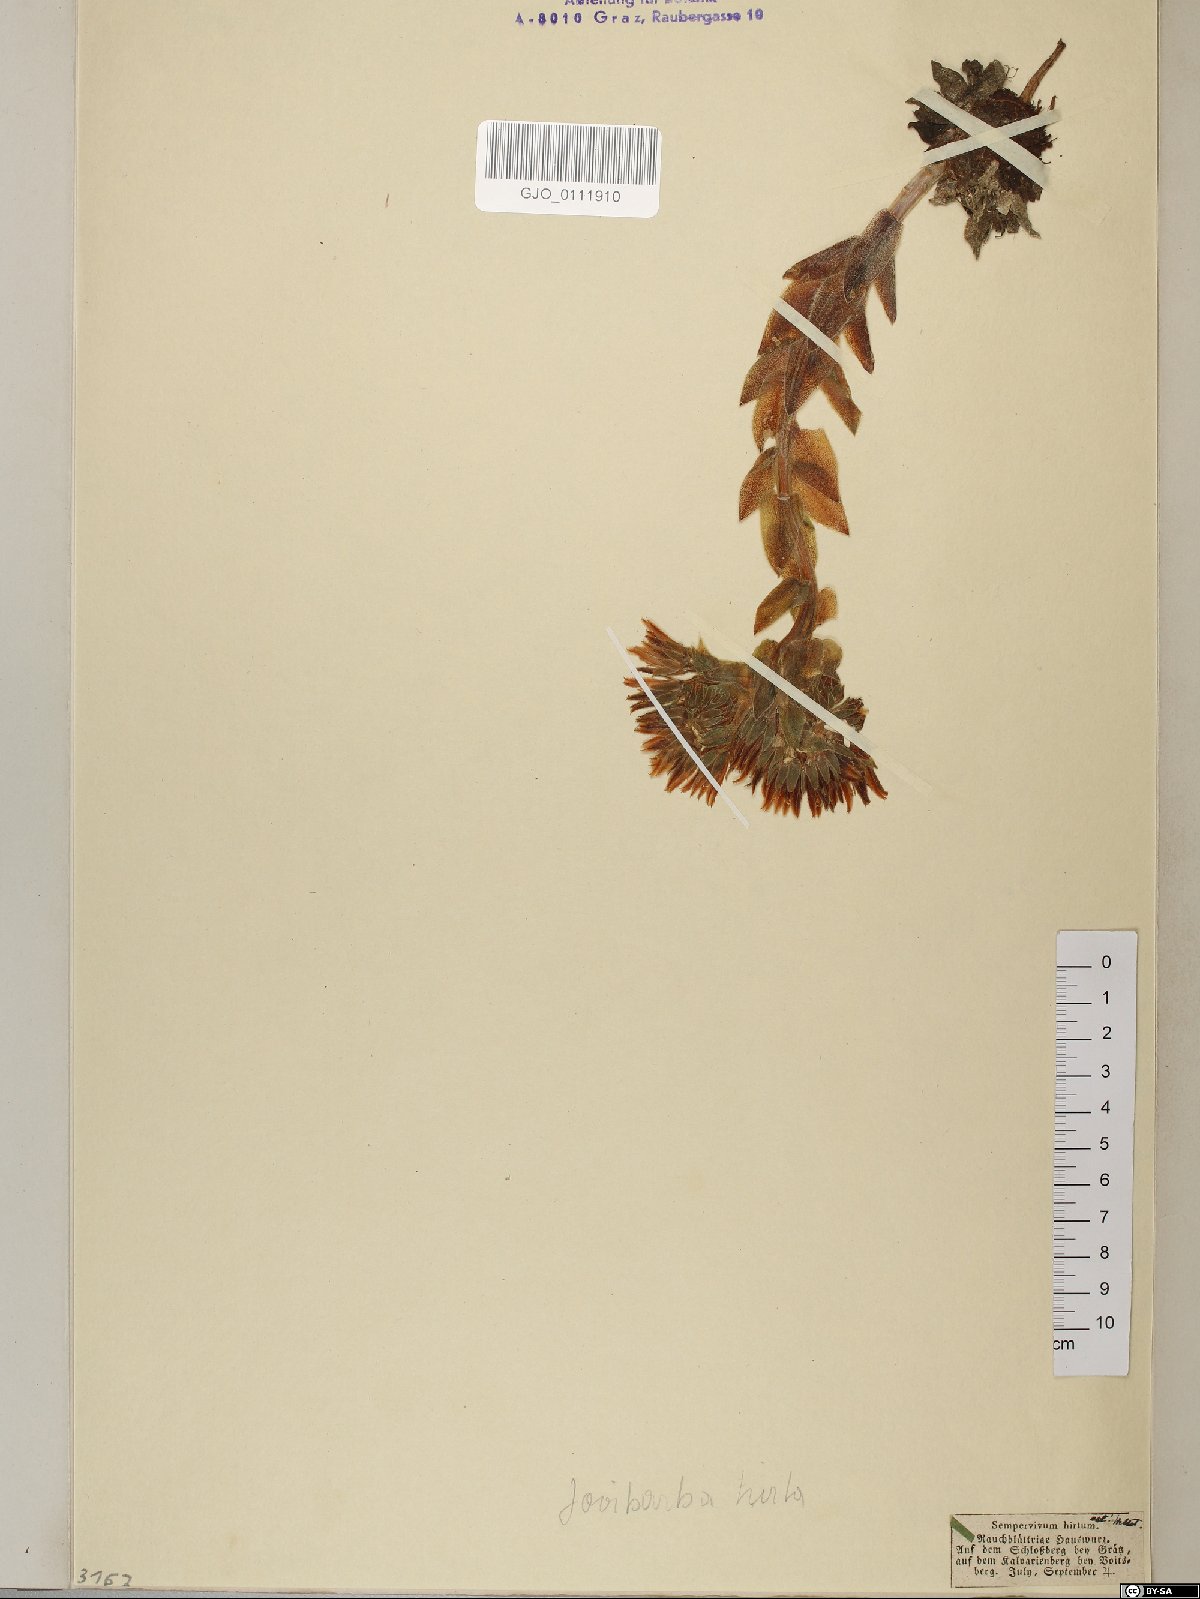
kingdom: Plantae
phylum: Tracheophyta
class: Magnoliopsida
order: Saxifragales
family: Crassulaceae
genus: Sempervivum
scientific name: Sempervivum globiferum
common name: Rolling hen-and-chicks
